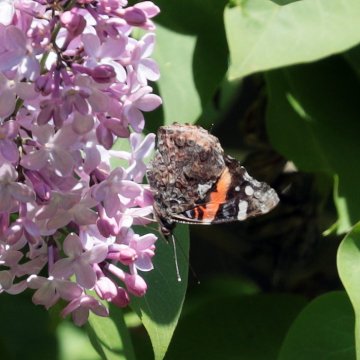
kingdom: Animalia
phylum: Arthropoda
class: Insecta
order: Lepidoptera
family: Nymphalidae
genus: Vanessa
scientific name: Vanessa atalanta
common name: Red Admiral
